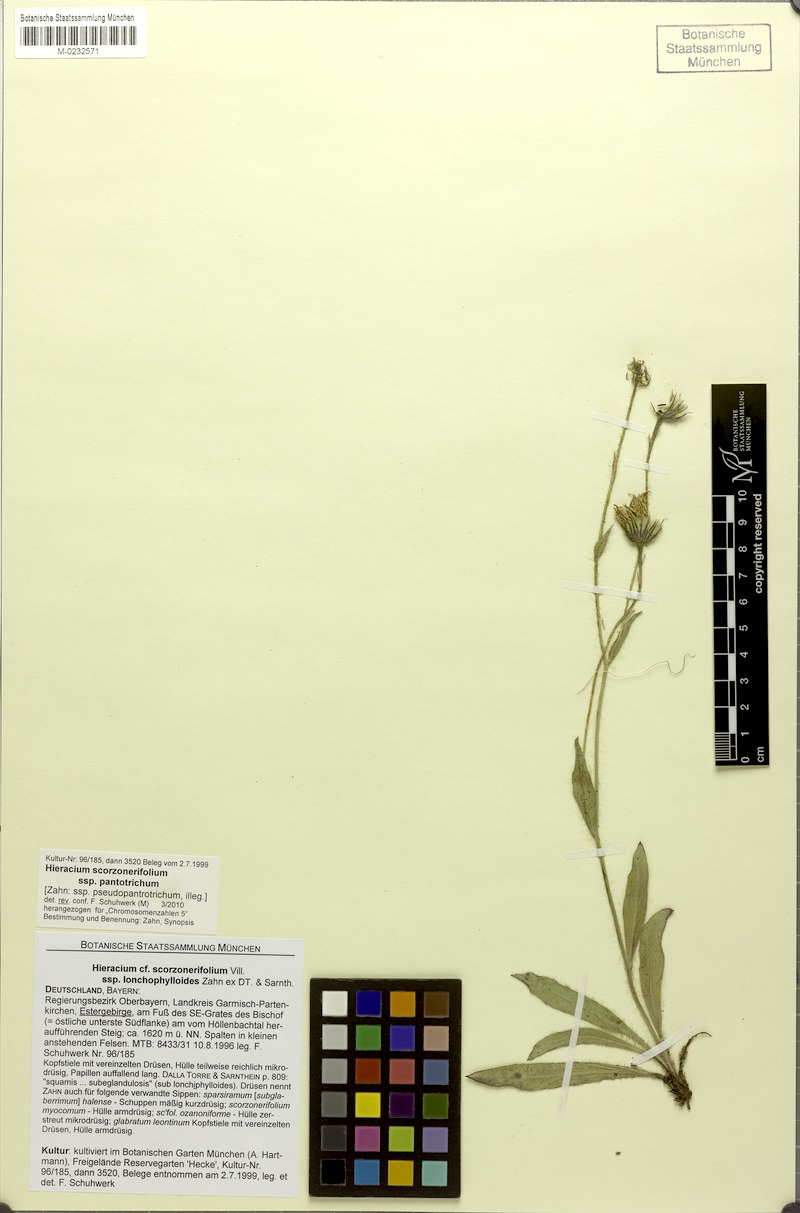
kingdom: Plantae
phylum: Tracheophyta
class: Magnoliopsida
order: Asterales
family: Asteraceae
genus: Hieracium
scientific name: Hieracium scorzonerifolium
